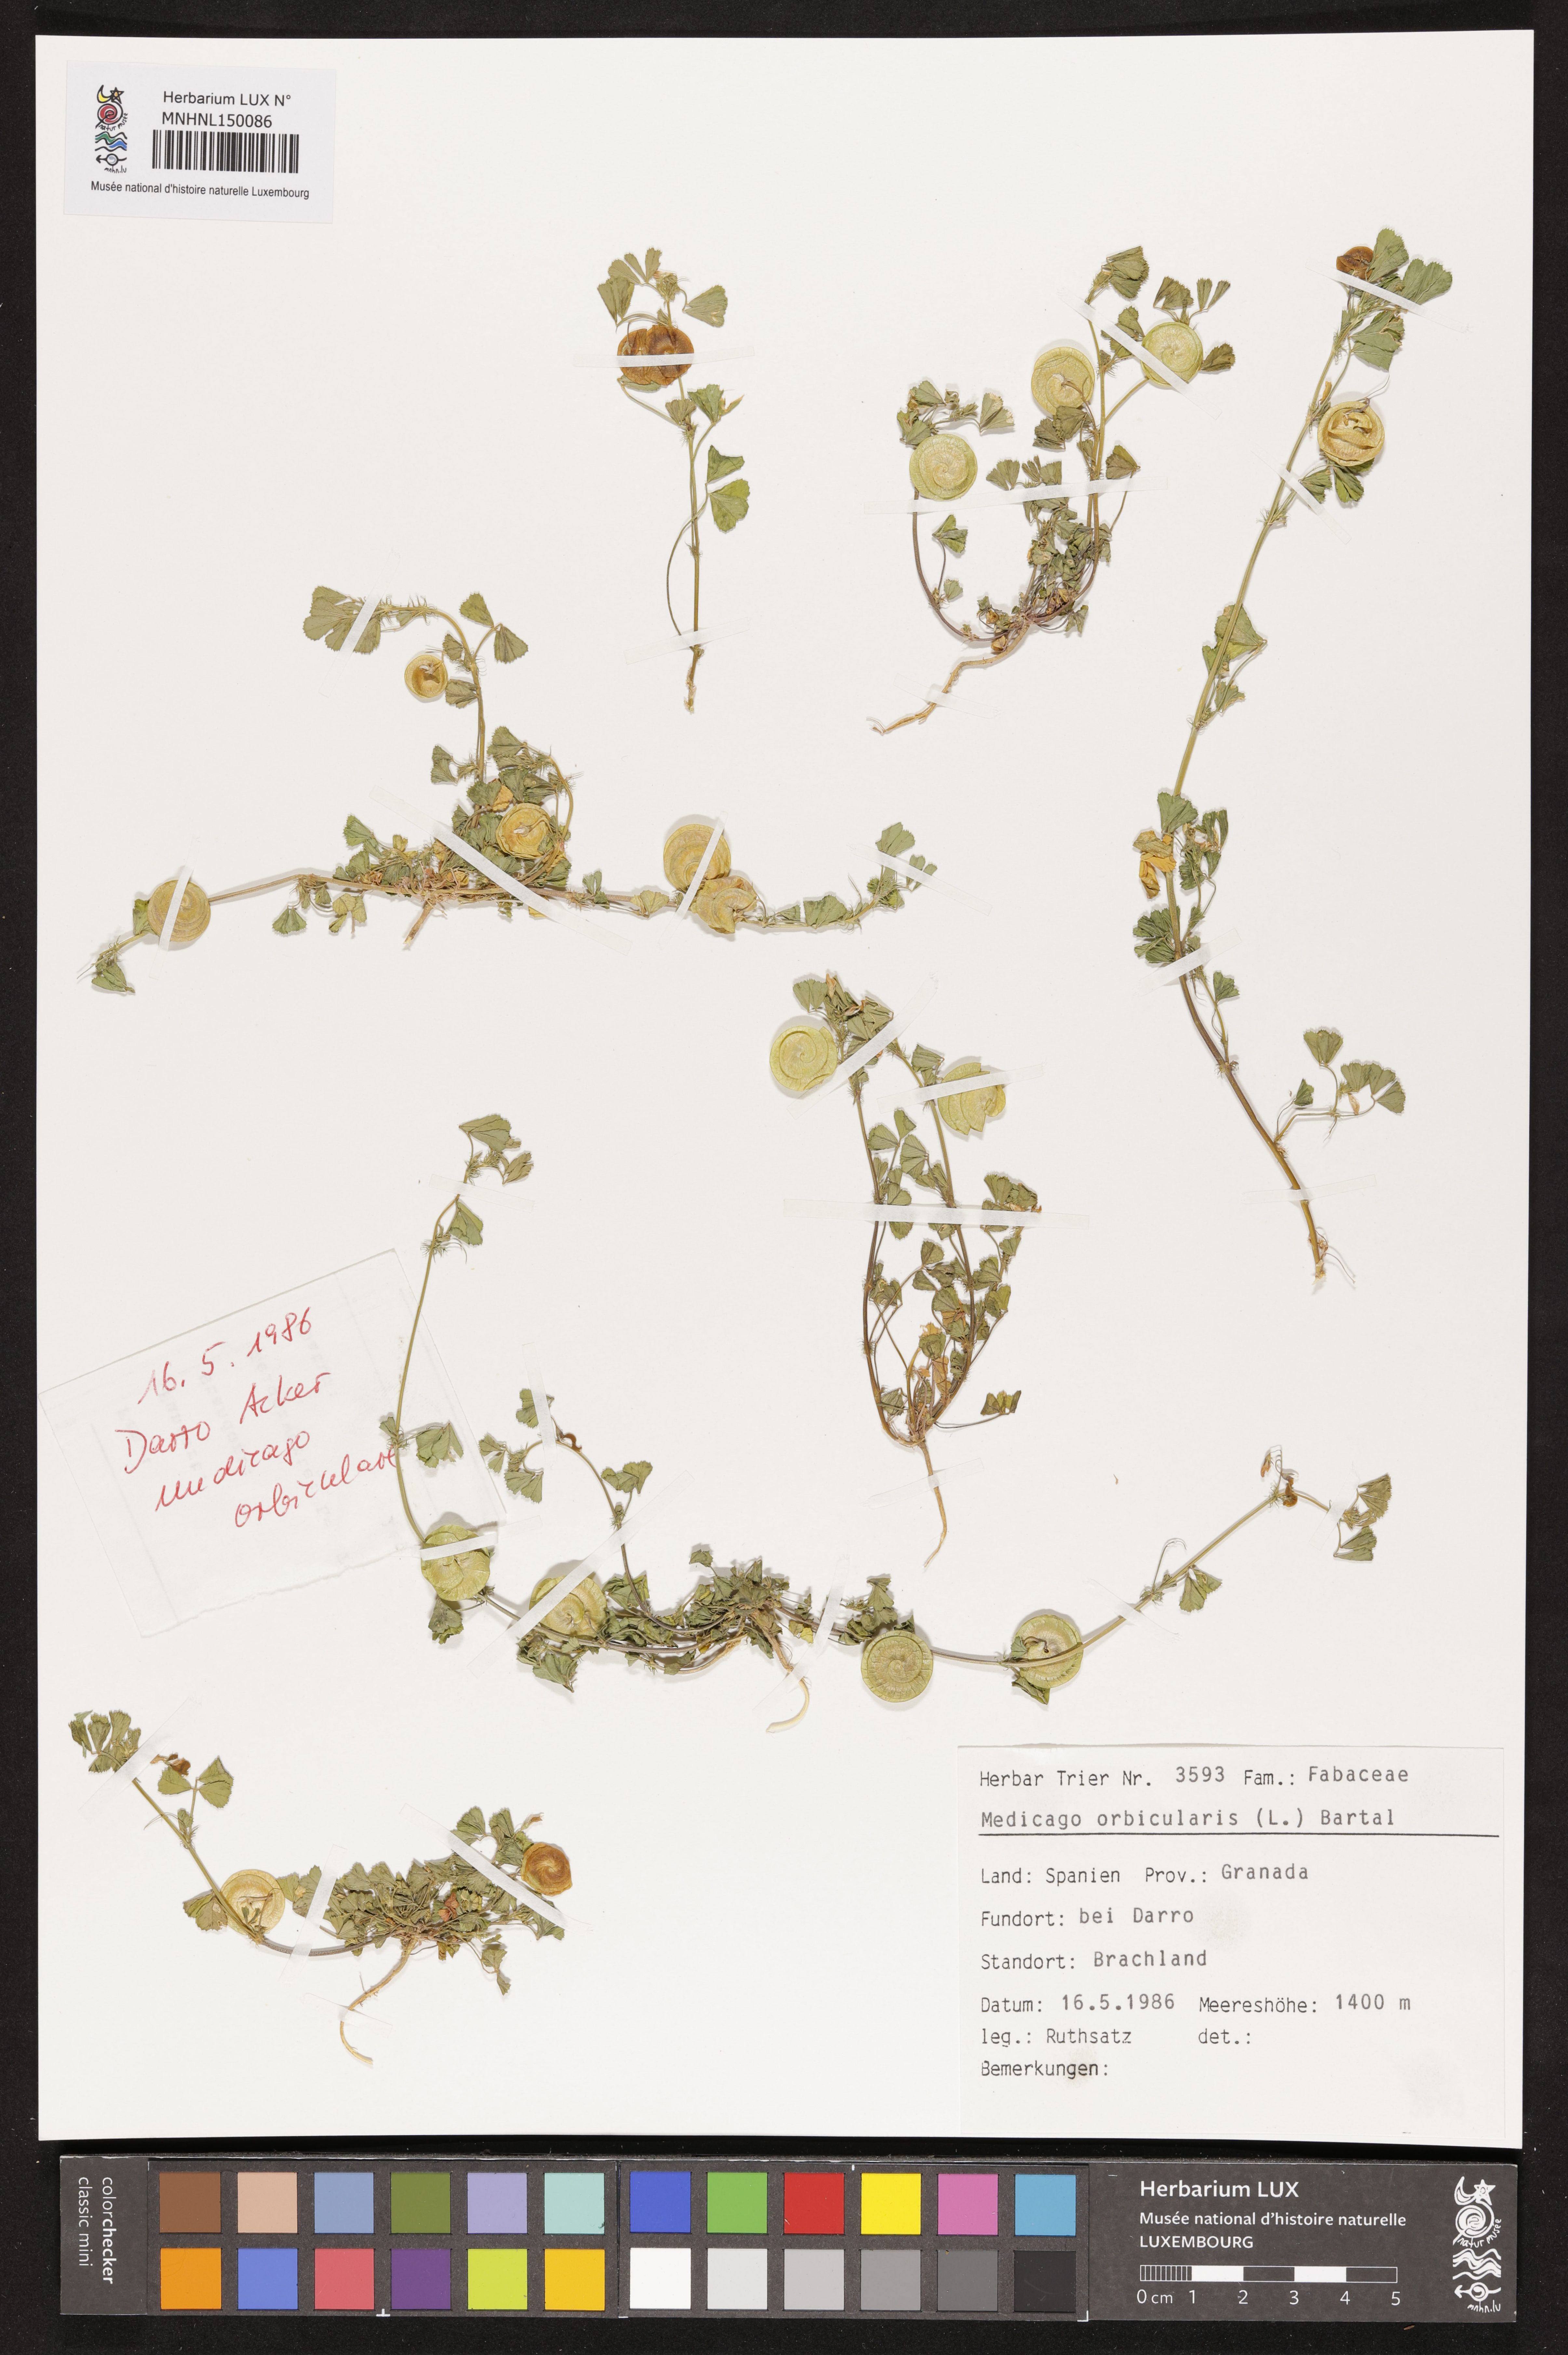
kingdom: Plantae
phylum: Tracheophyta
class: Magnoliopsida
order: Fabales
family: Fabaceae
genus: Medicago
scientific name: Medicago orbicularis
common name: Button medick
